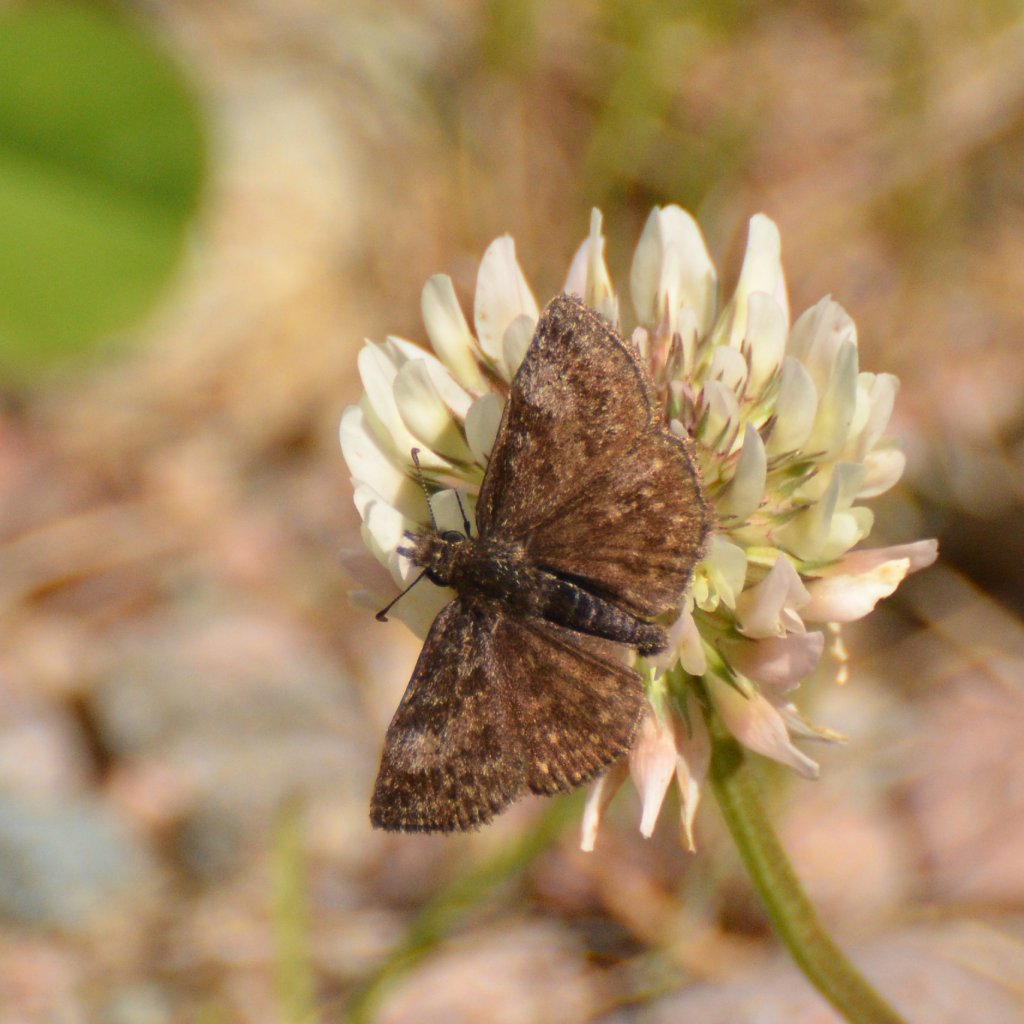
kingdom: Animalia
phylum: Arthropoda
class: Insecta
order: Lepidoptera
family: Hesperiidae
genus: Erynnis
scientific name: Erynnis icelus
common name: Dreamy Duskywing
